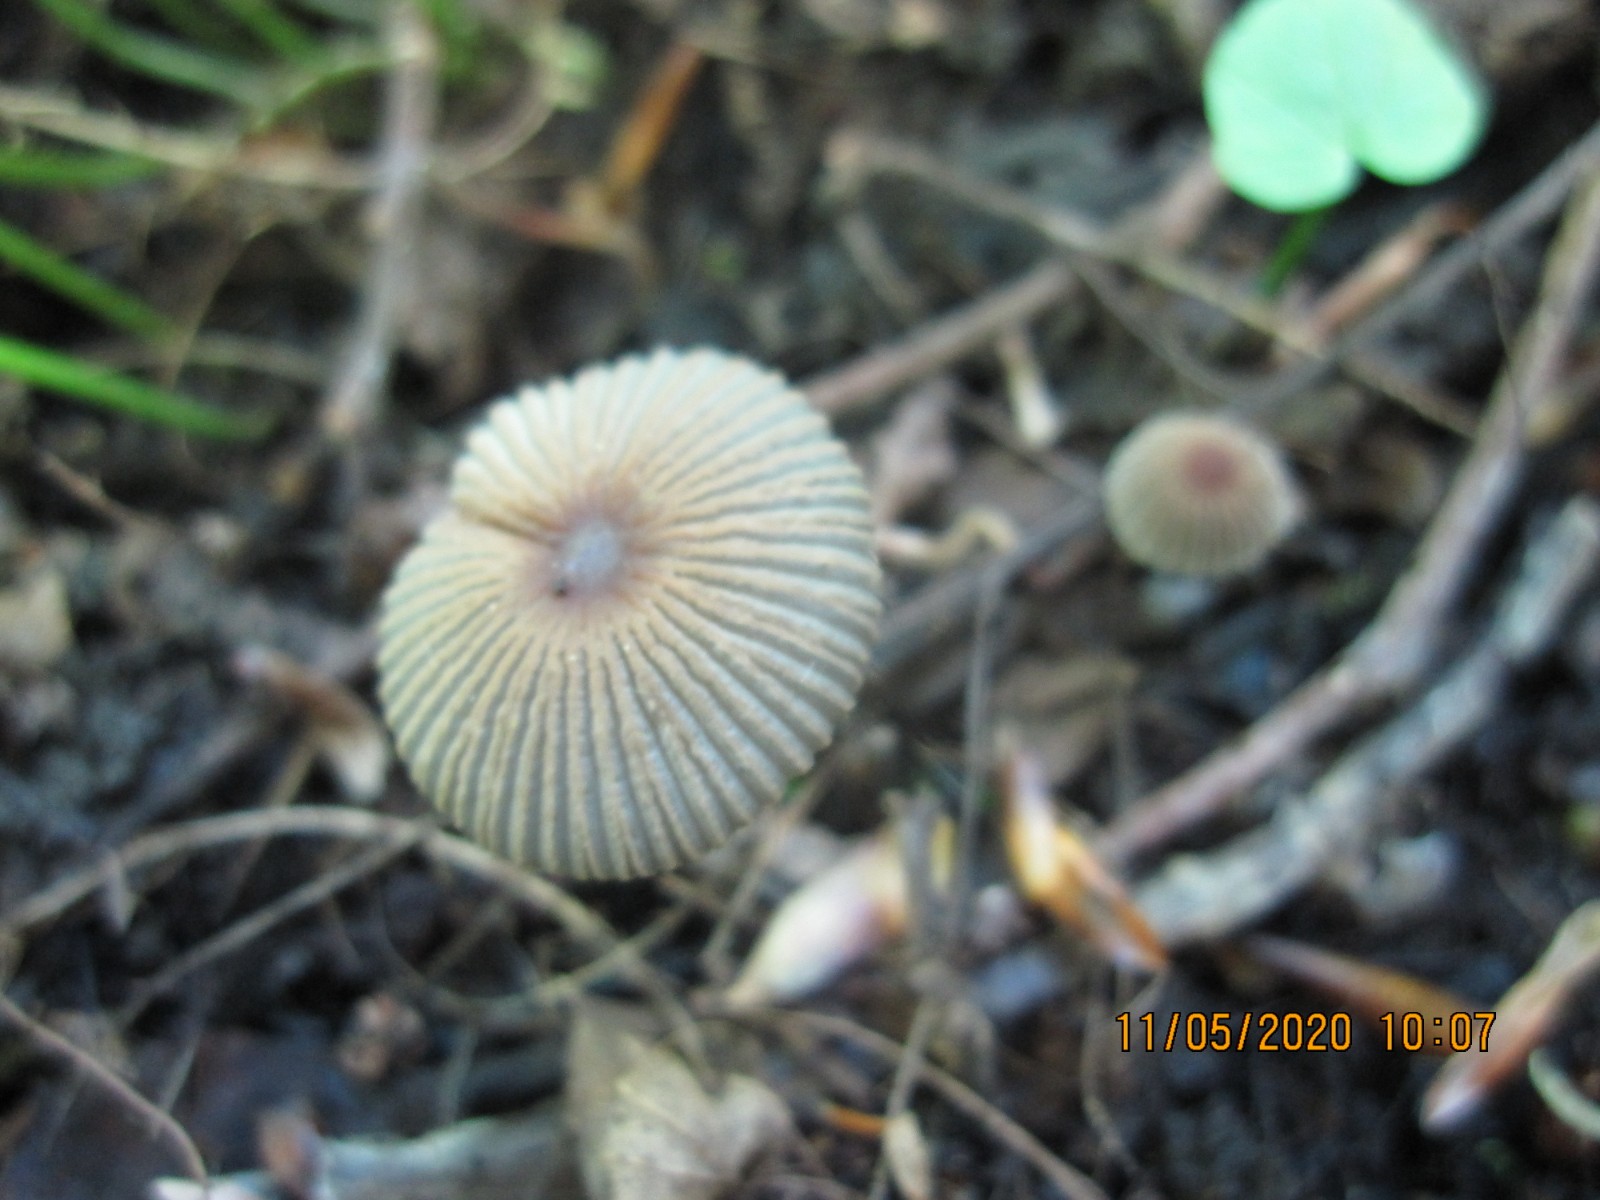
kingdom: Fungi
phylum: Basidiomycota
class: Agaricomycetes
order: Agaricales
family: Psathyrellaceae
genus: Parasola
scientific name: Parasola kuehneri
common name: skygge-hjulhat
